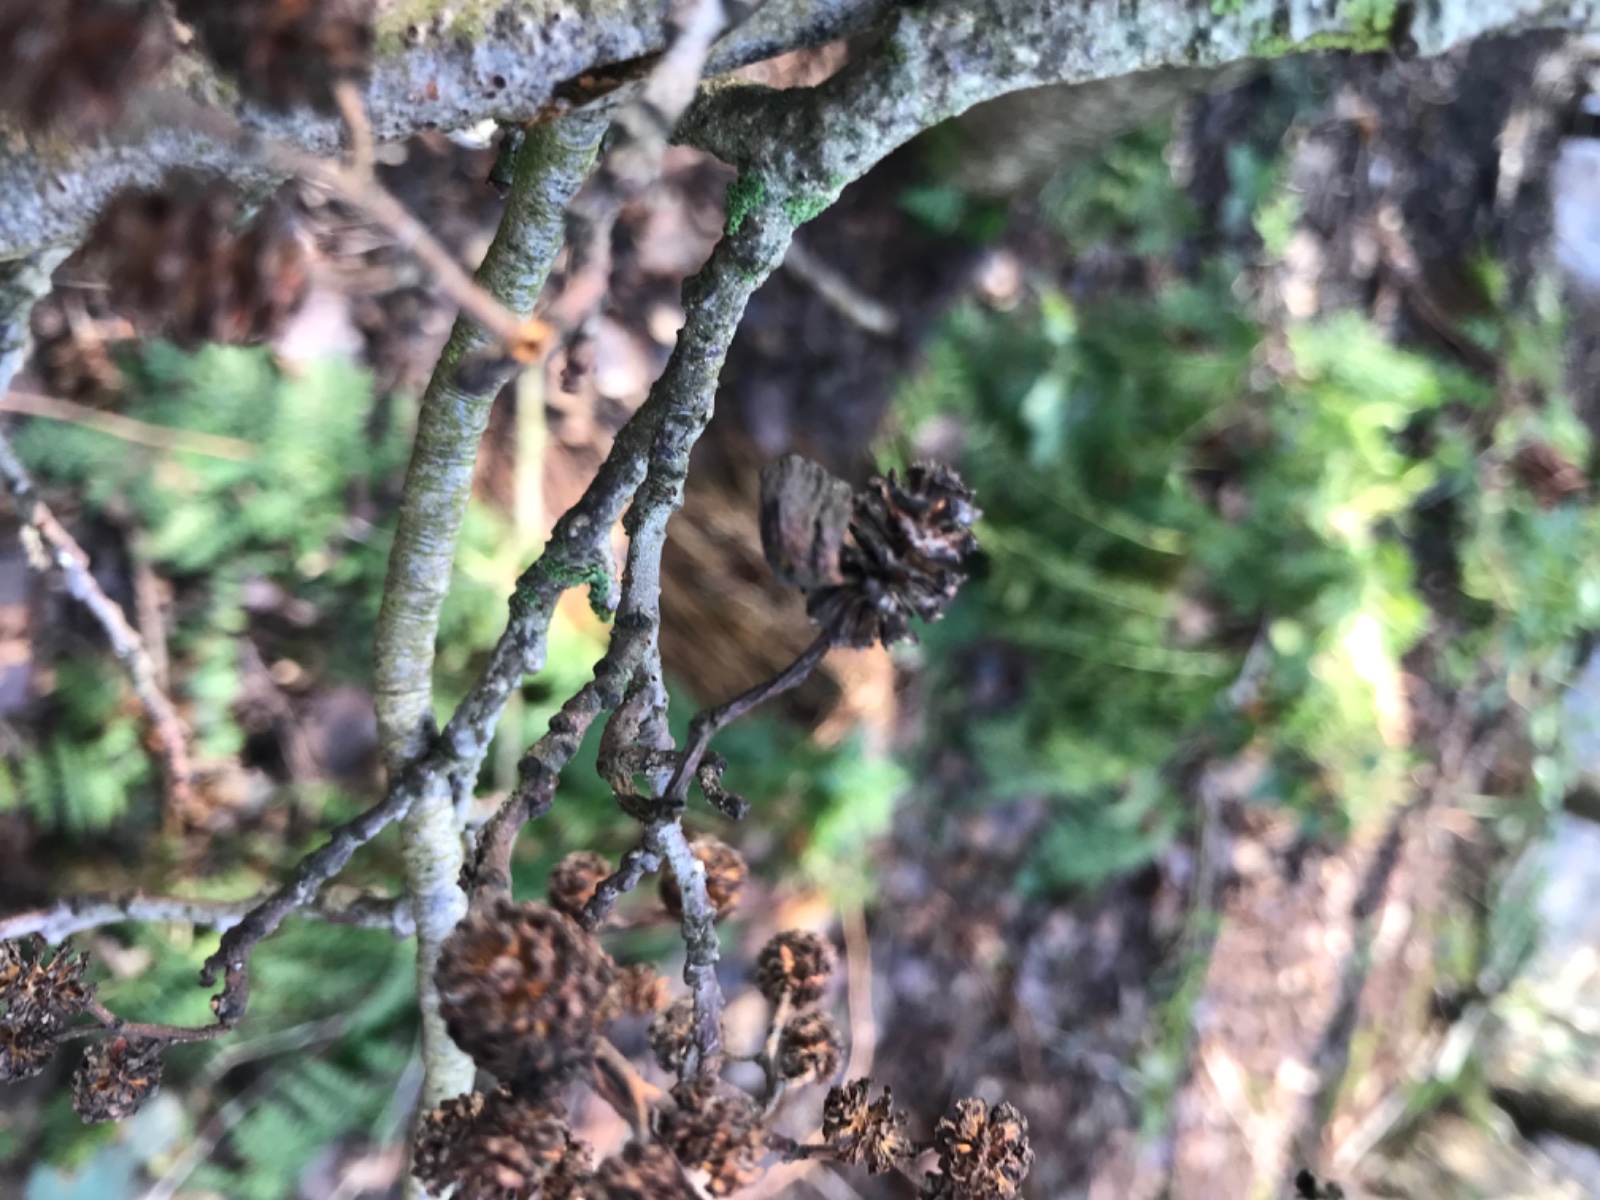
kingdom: Fungi
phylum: Ascomycota
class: Taphrinomycetes
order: Taphrinales
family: Taphrinaceae
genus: Taphrina
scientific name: Taphrina alni
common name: Alder tongue
